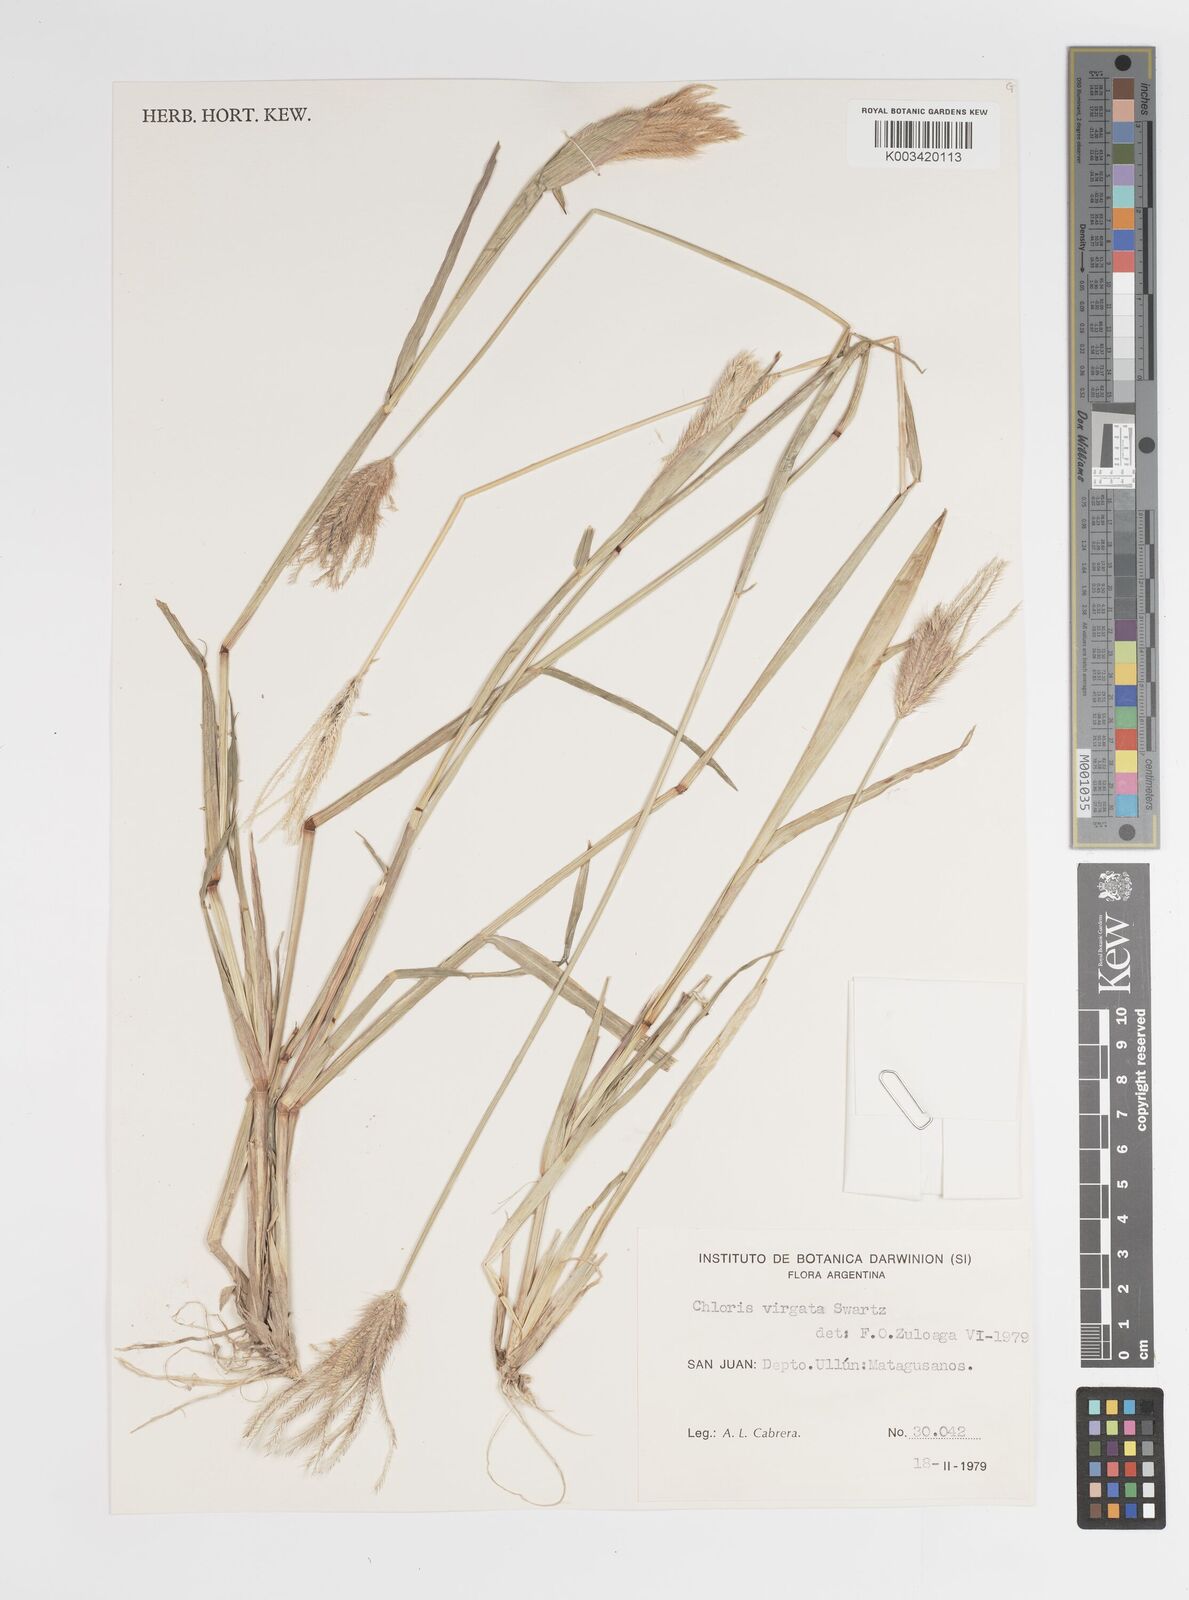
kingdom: Plantae
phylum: Tracheophyta
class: Liliopsida
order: Poales
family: Poaceae
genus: Chloris
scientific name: Chloris virgata
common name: Feathery rhodes-grass
